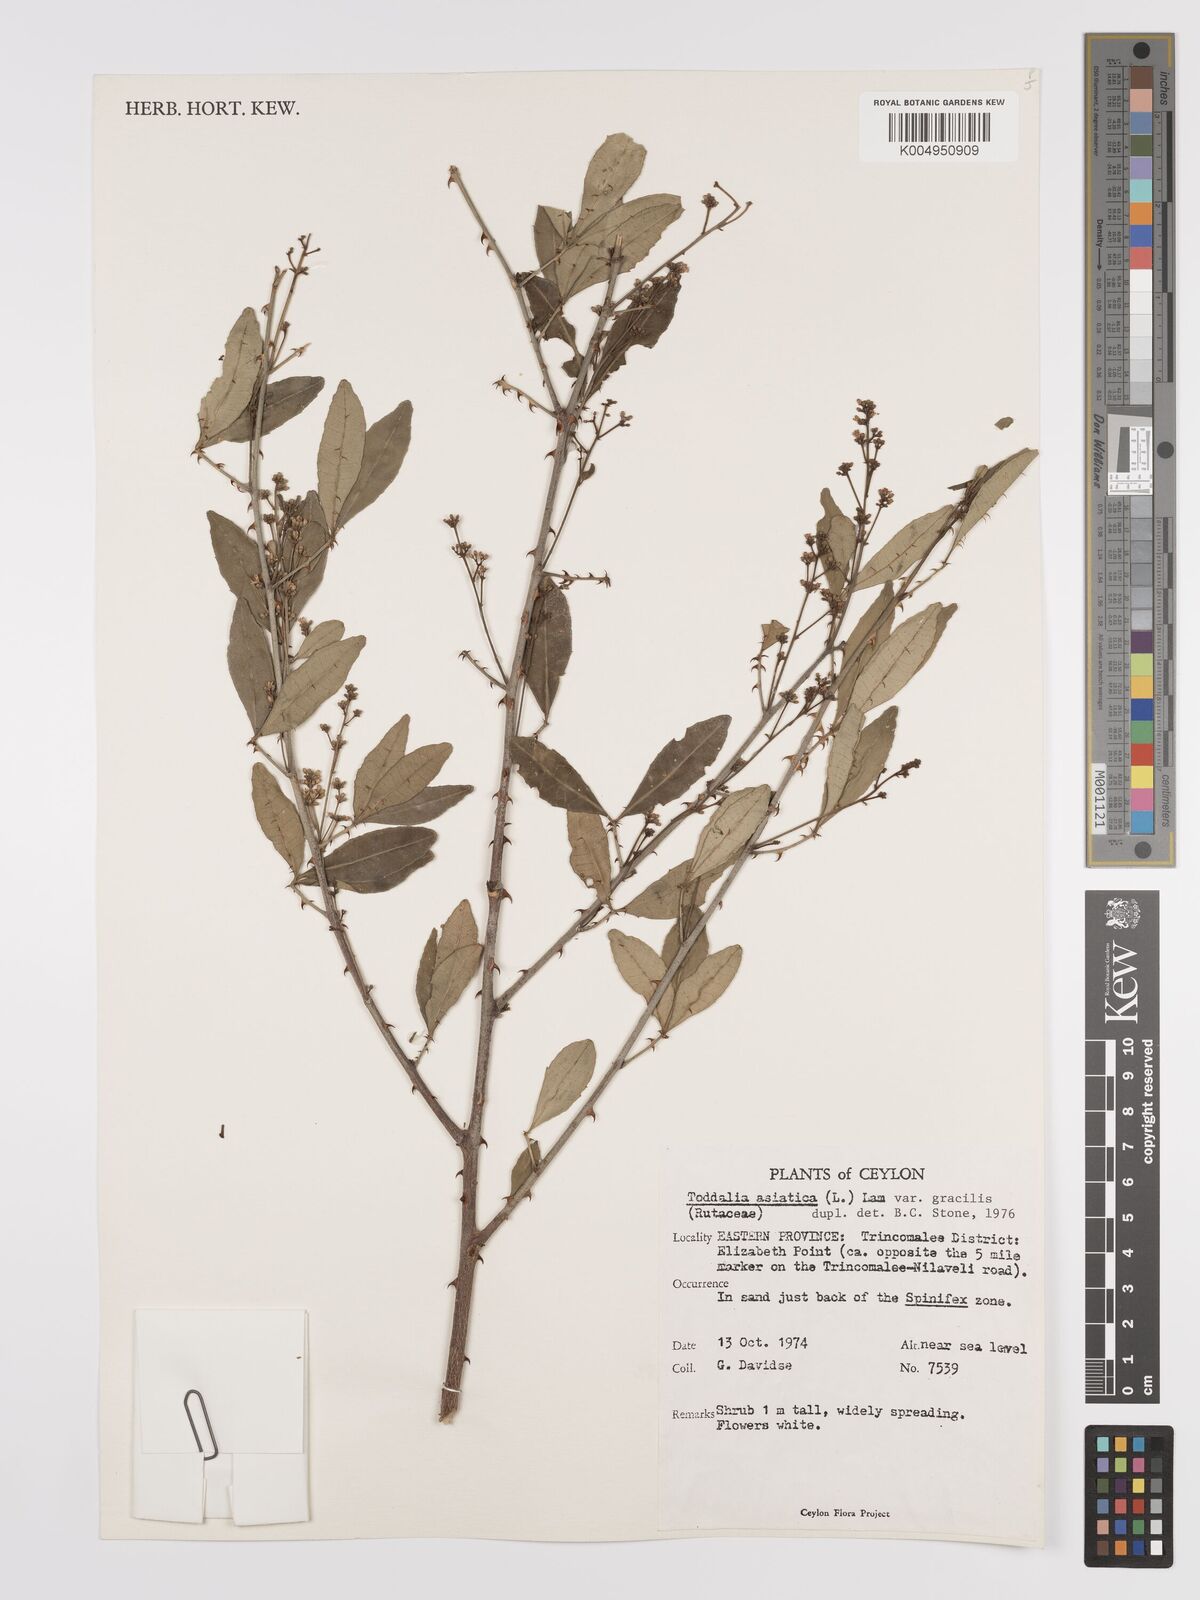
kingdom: Plantae
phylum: Tracheophyta
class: Magnoliopsida
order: Sapindales
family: Rutaceae
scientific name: Rutaceae
